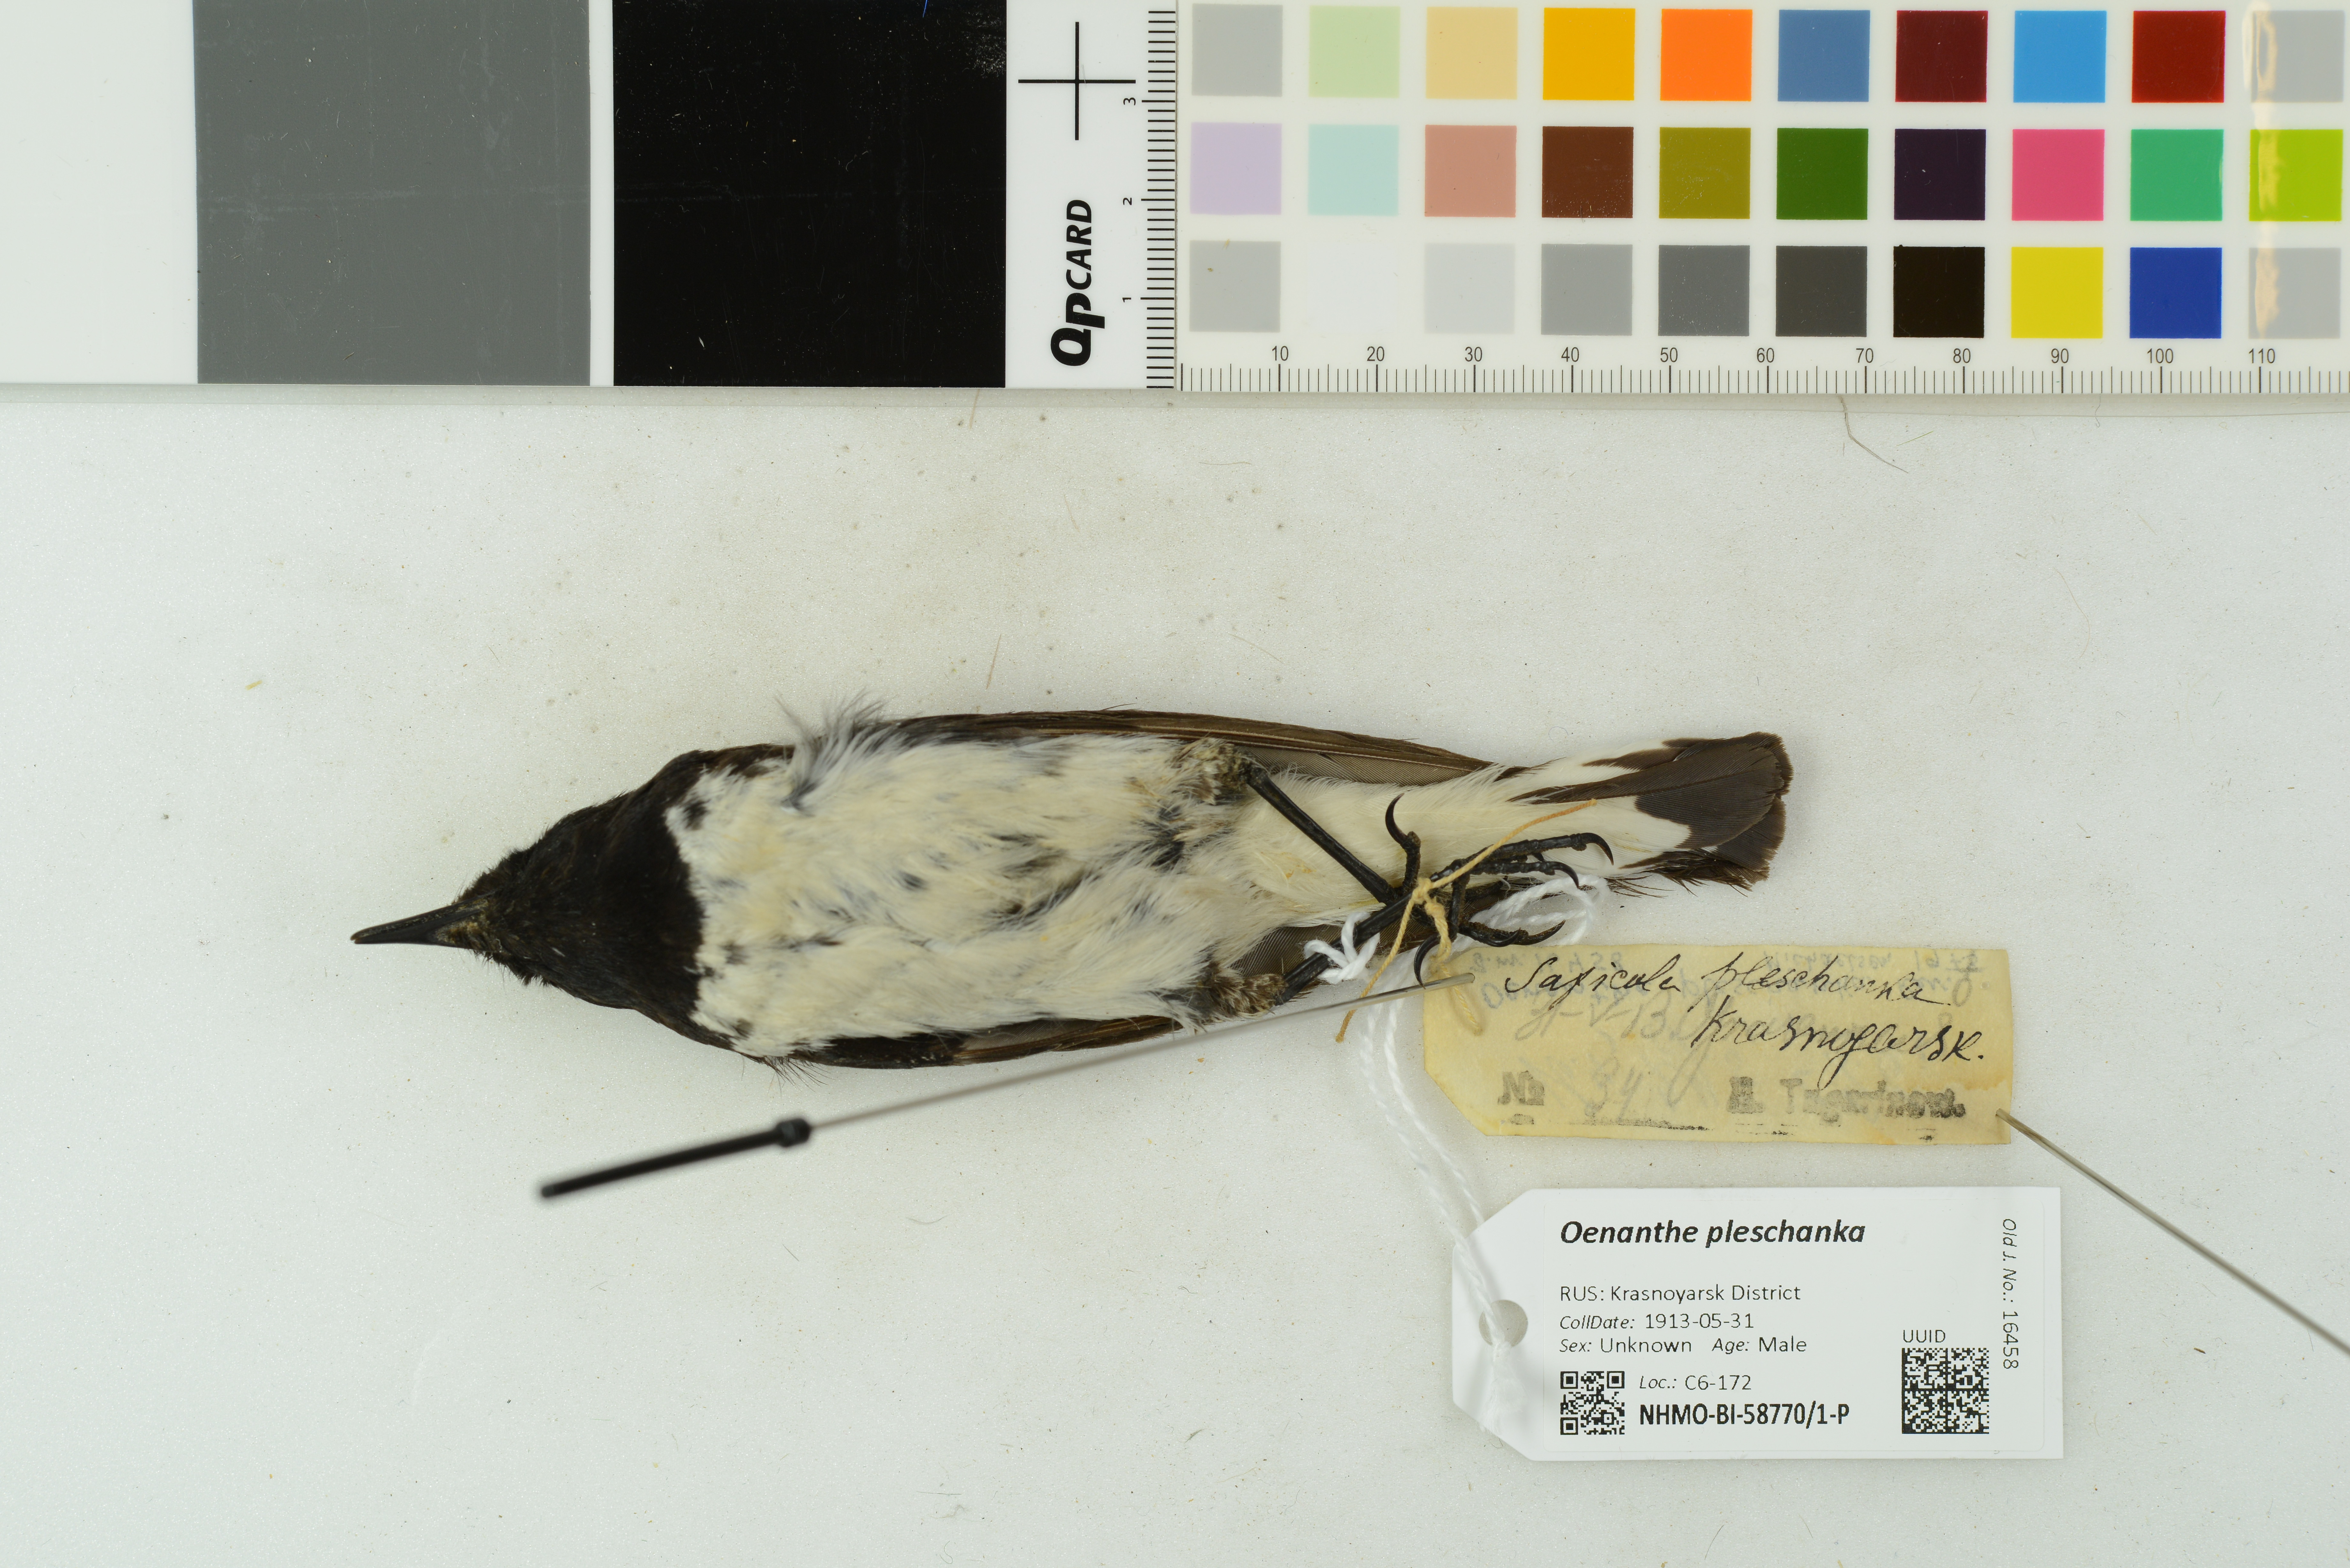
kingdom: Animalia
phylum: Chordata
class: Aves
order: Passeriformes
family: Muscicapidae
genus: Oenanthe
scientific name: Oenanthe pleschanka
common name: Pied wheatear
